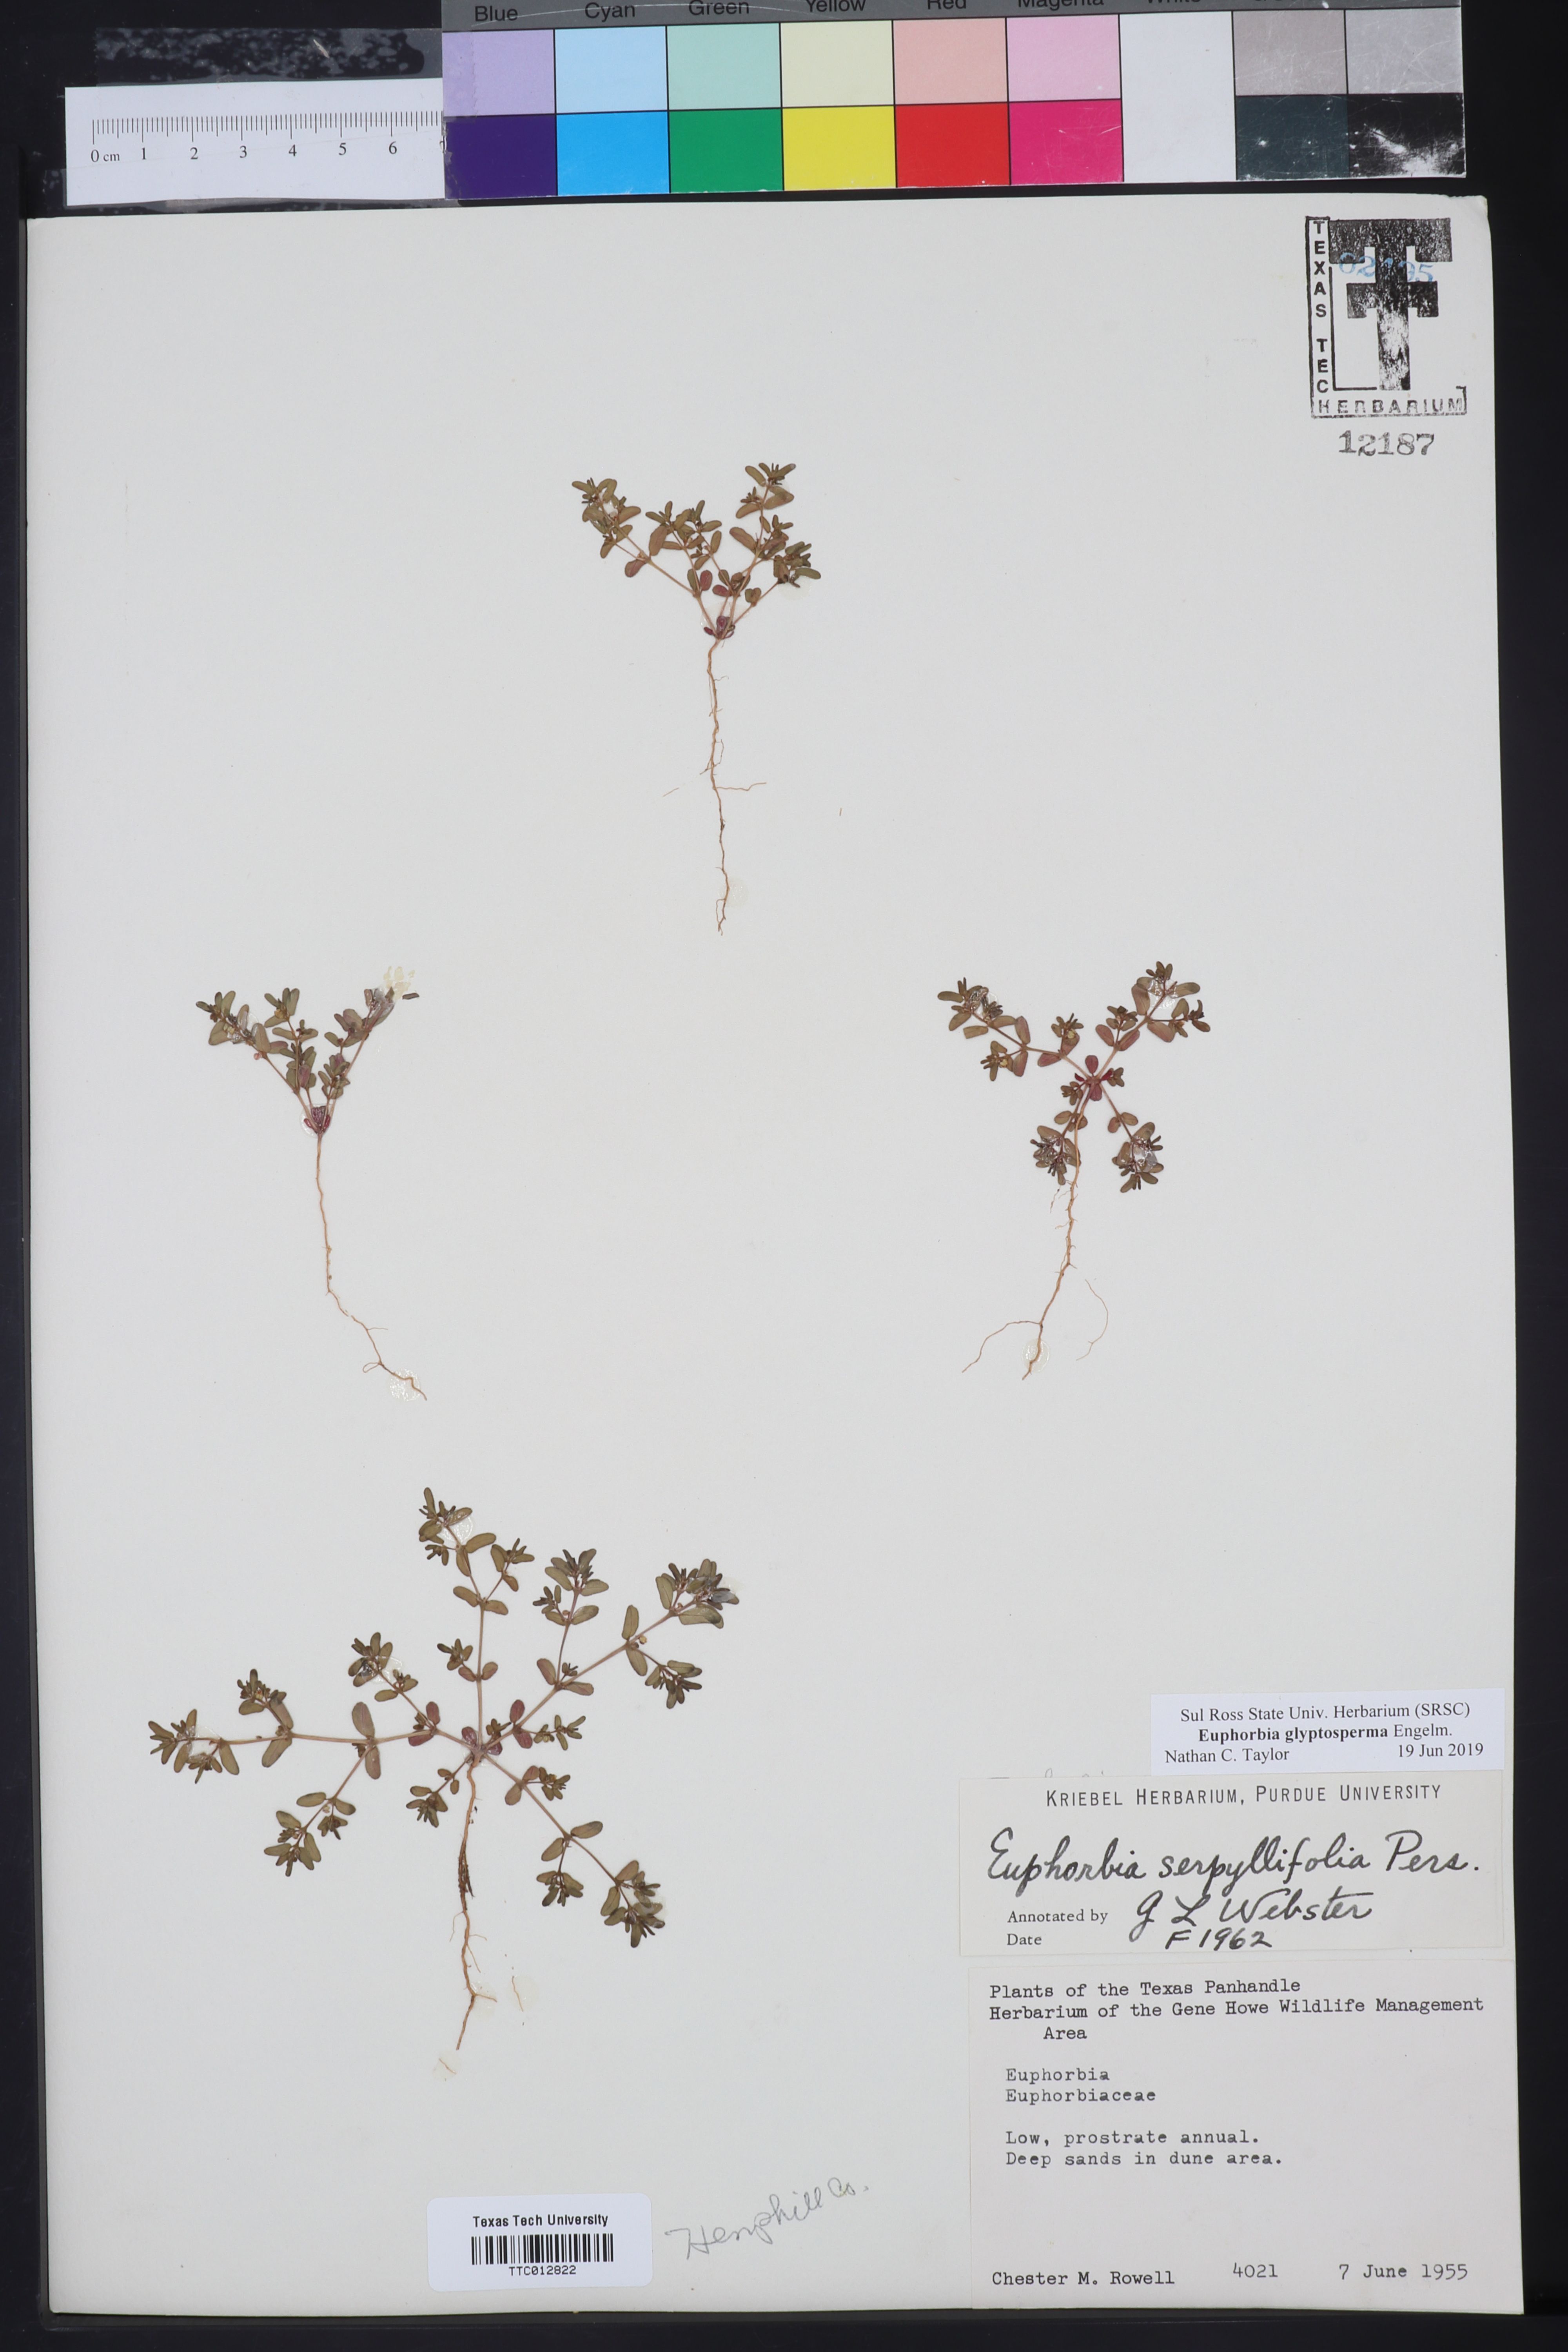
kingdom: Plantae
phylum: Tracheophyta
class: Magnoliopsida
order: Malpighiales
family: Euphorbiaceae
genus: Euphorbia
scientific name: Euphorbia glyptosperma
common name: Corrugate-seeded spurge
